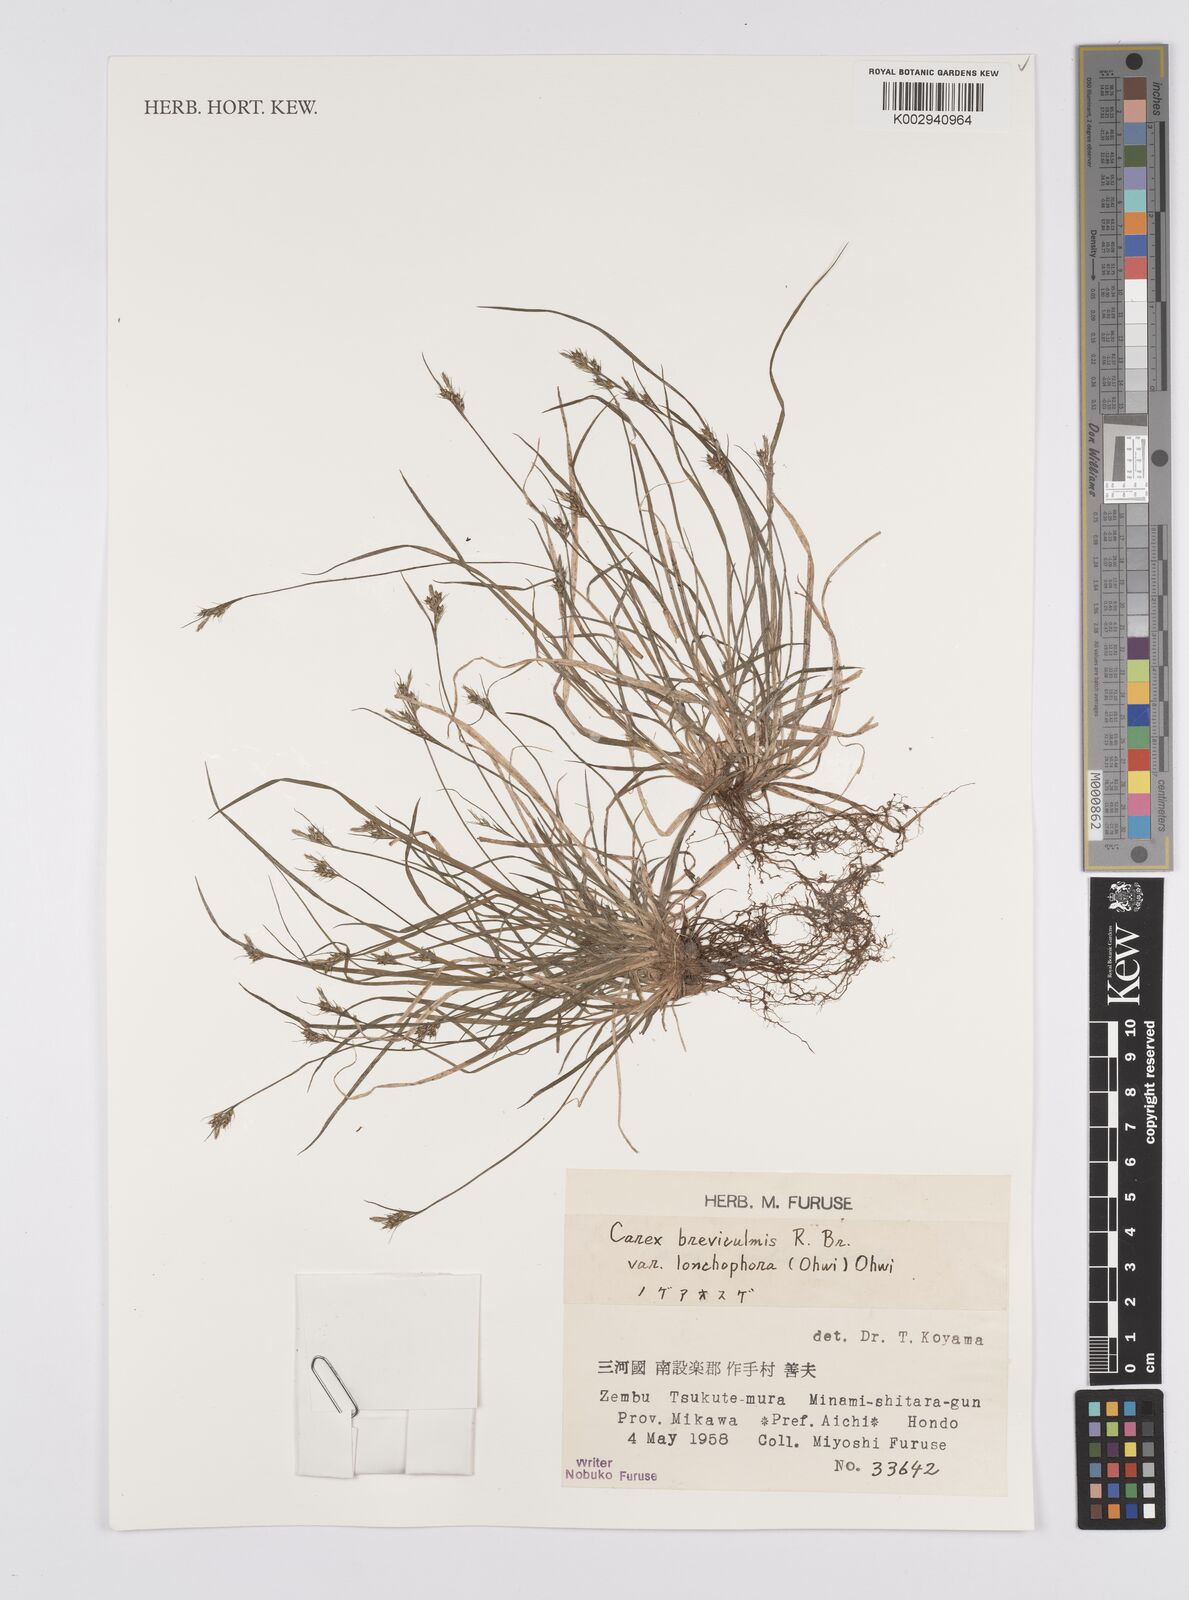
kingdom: Plantae
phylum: Tracheophyta
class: Liliopsida
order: Poales
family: Cyperaceae
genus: Carex
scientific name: Carex fibrillosa
